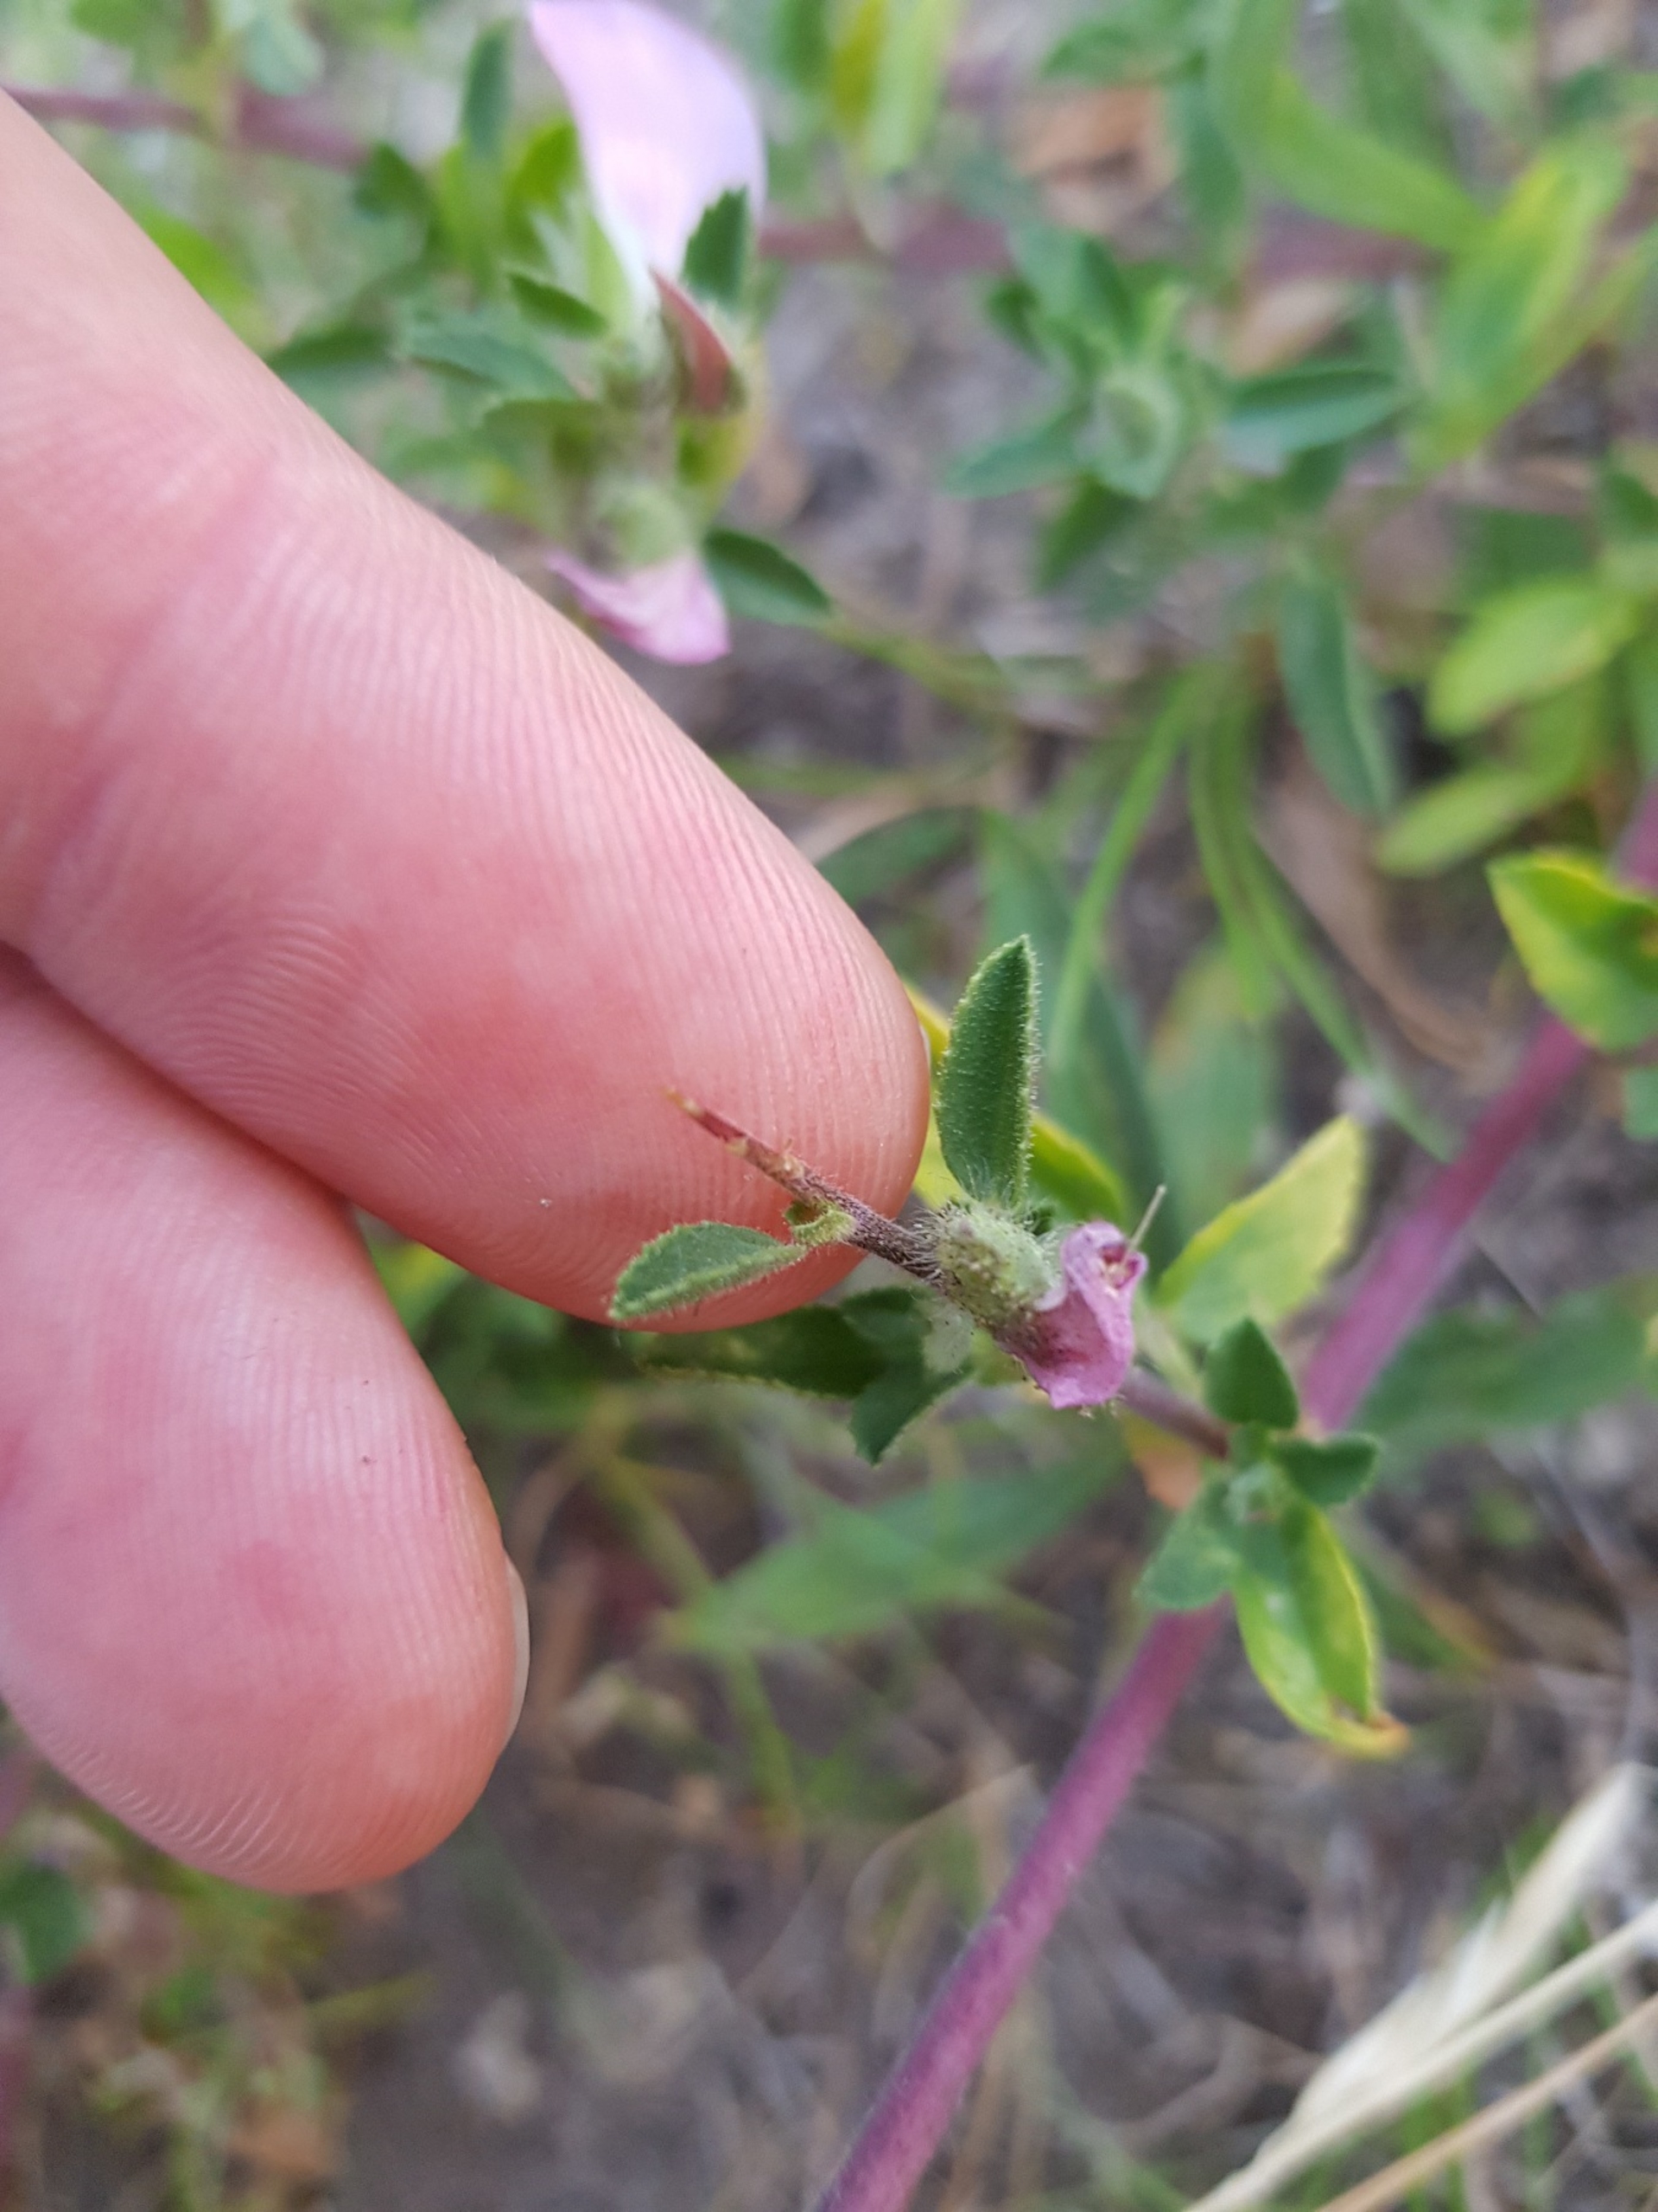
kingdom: Plantae
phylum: Tracheophyta
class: Magnoliopsida
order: Fabales
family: Fabaceae
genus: Ononis
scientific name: Ononis spinosa
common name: Mark-krageklo
